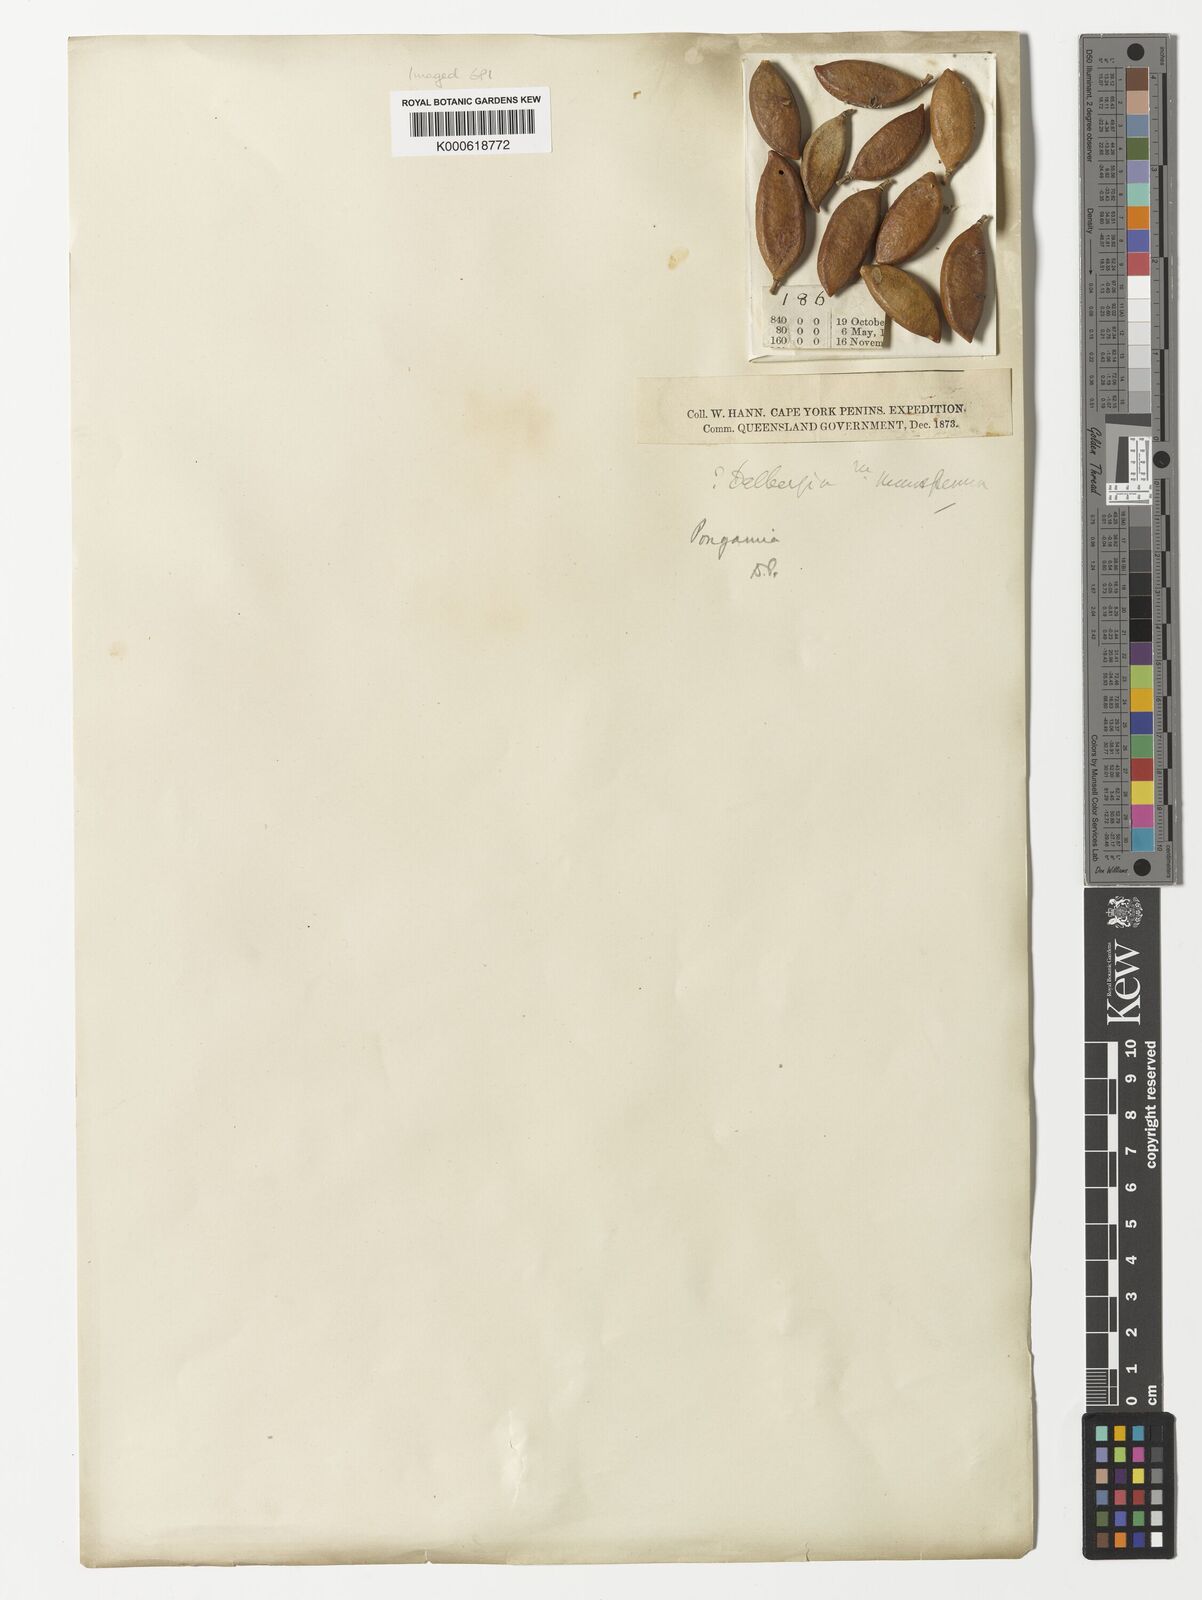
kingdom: Plantae
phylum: Tracheophyta
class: Magnoliopsida
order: Fabales
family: Fabaceae
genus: Pongamia
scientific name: Pongamia pinnata
